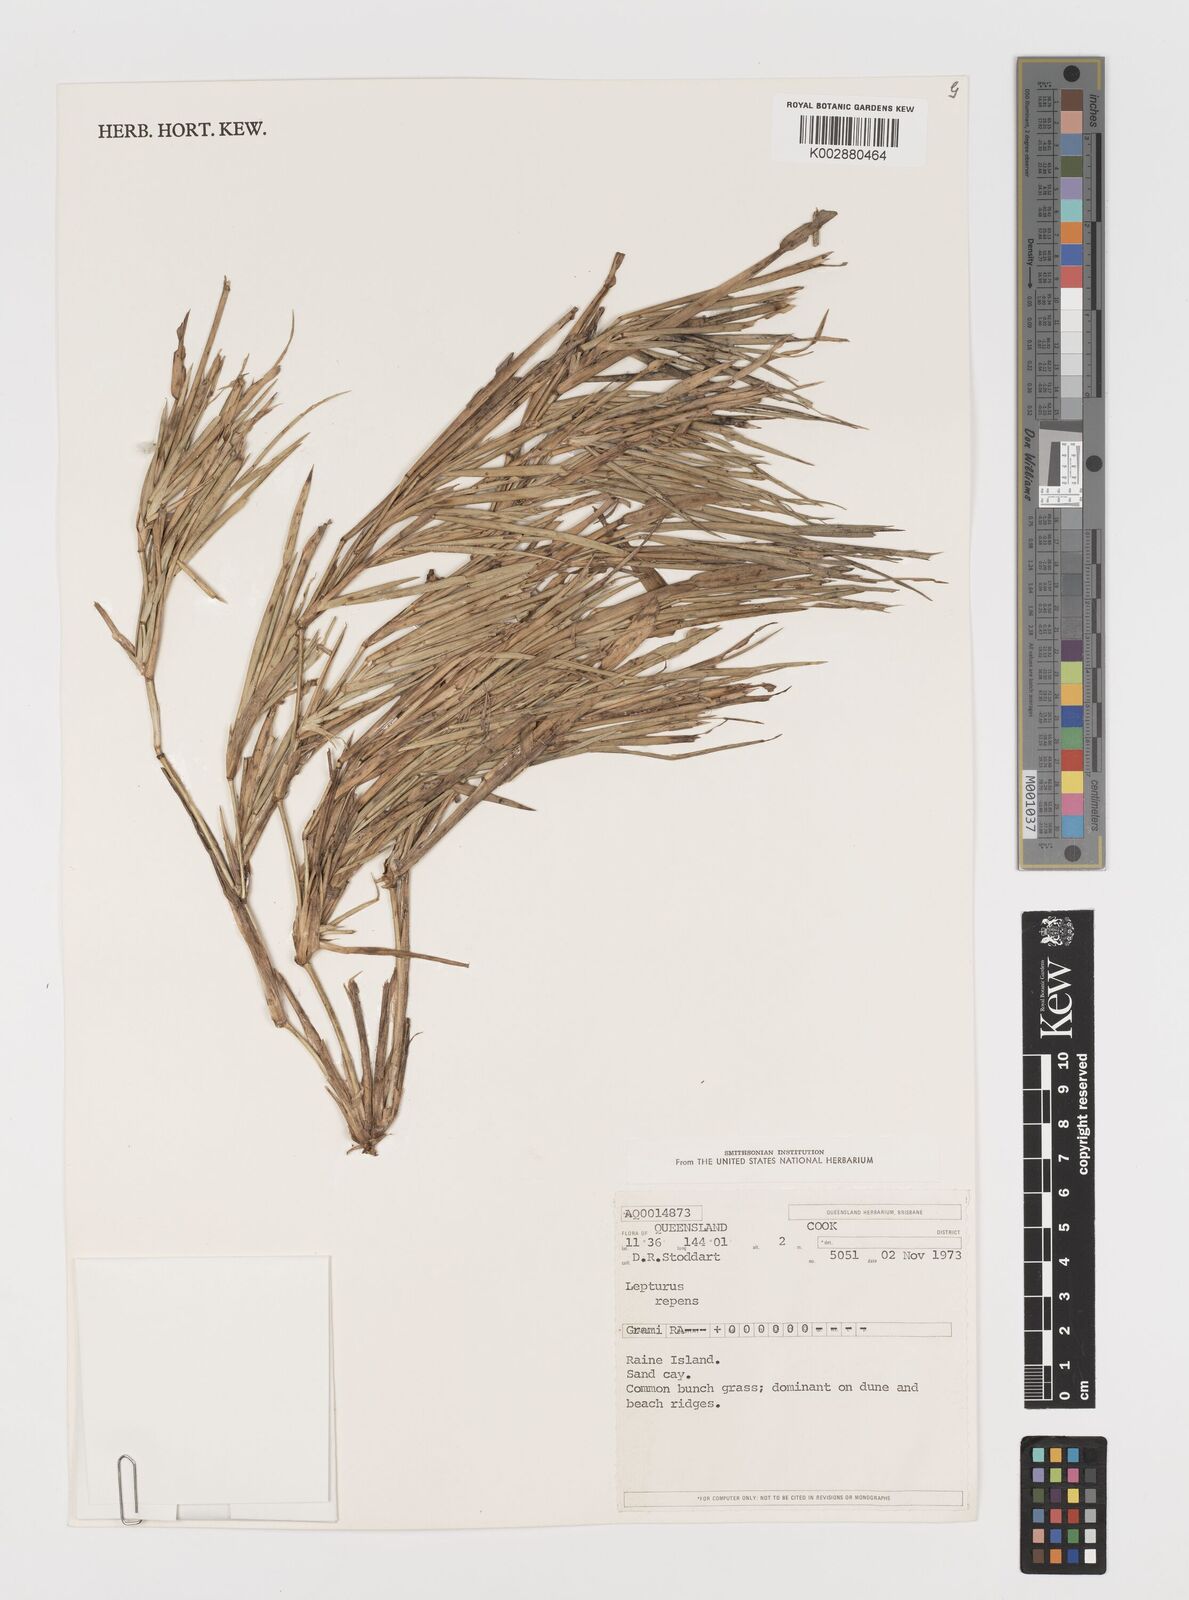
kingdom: Plantae
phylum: Tracheophyta
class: Liliopsida
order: Poales
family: Poaceae
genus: Lepturus
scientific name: Lepturus repens
